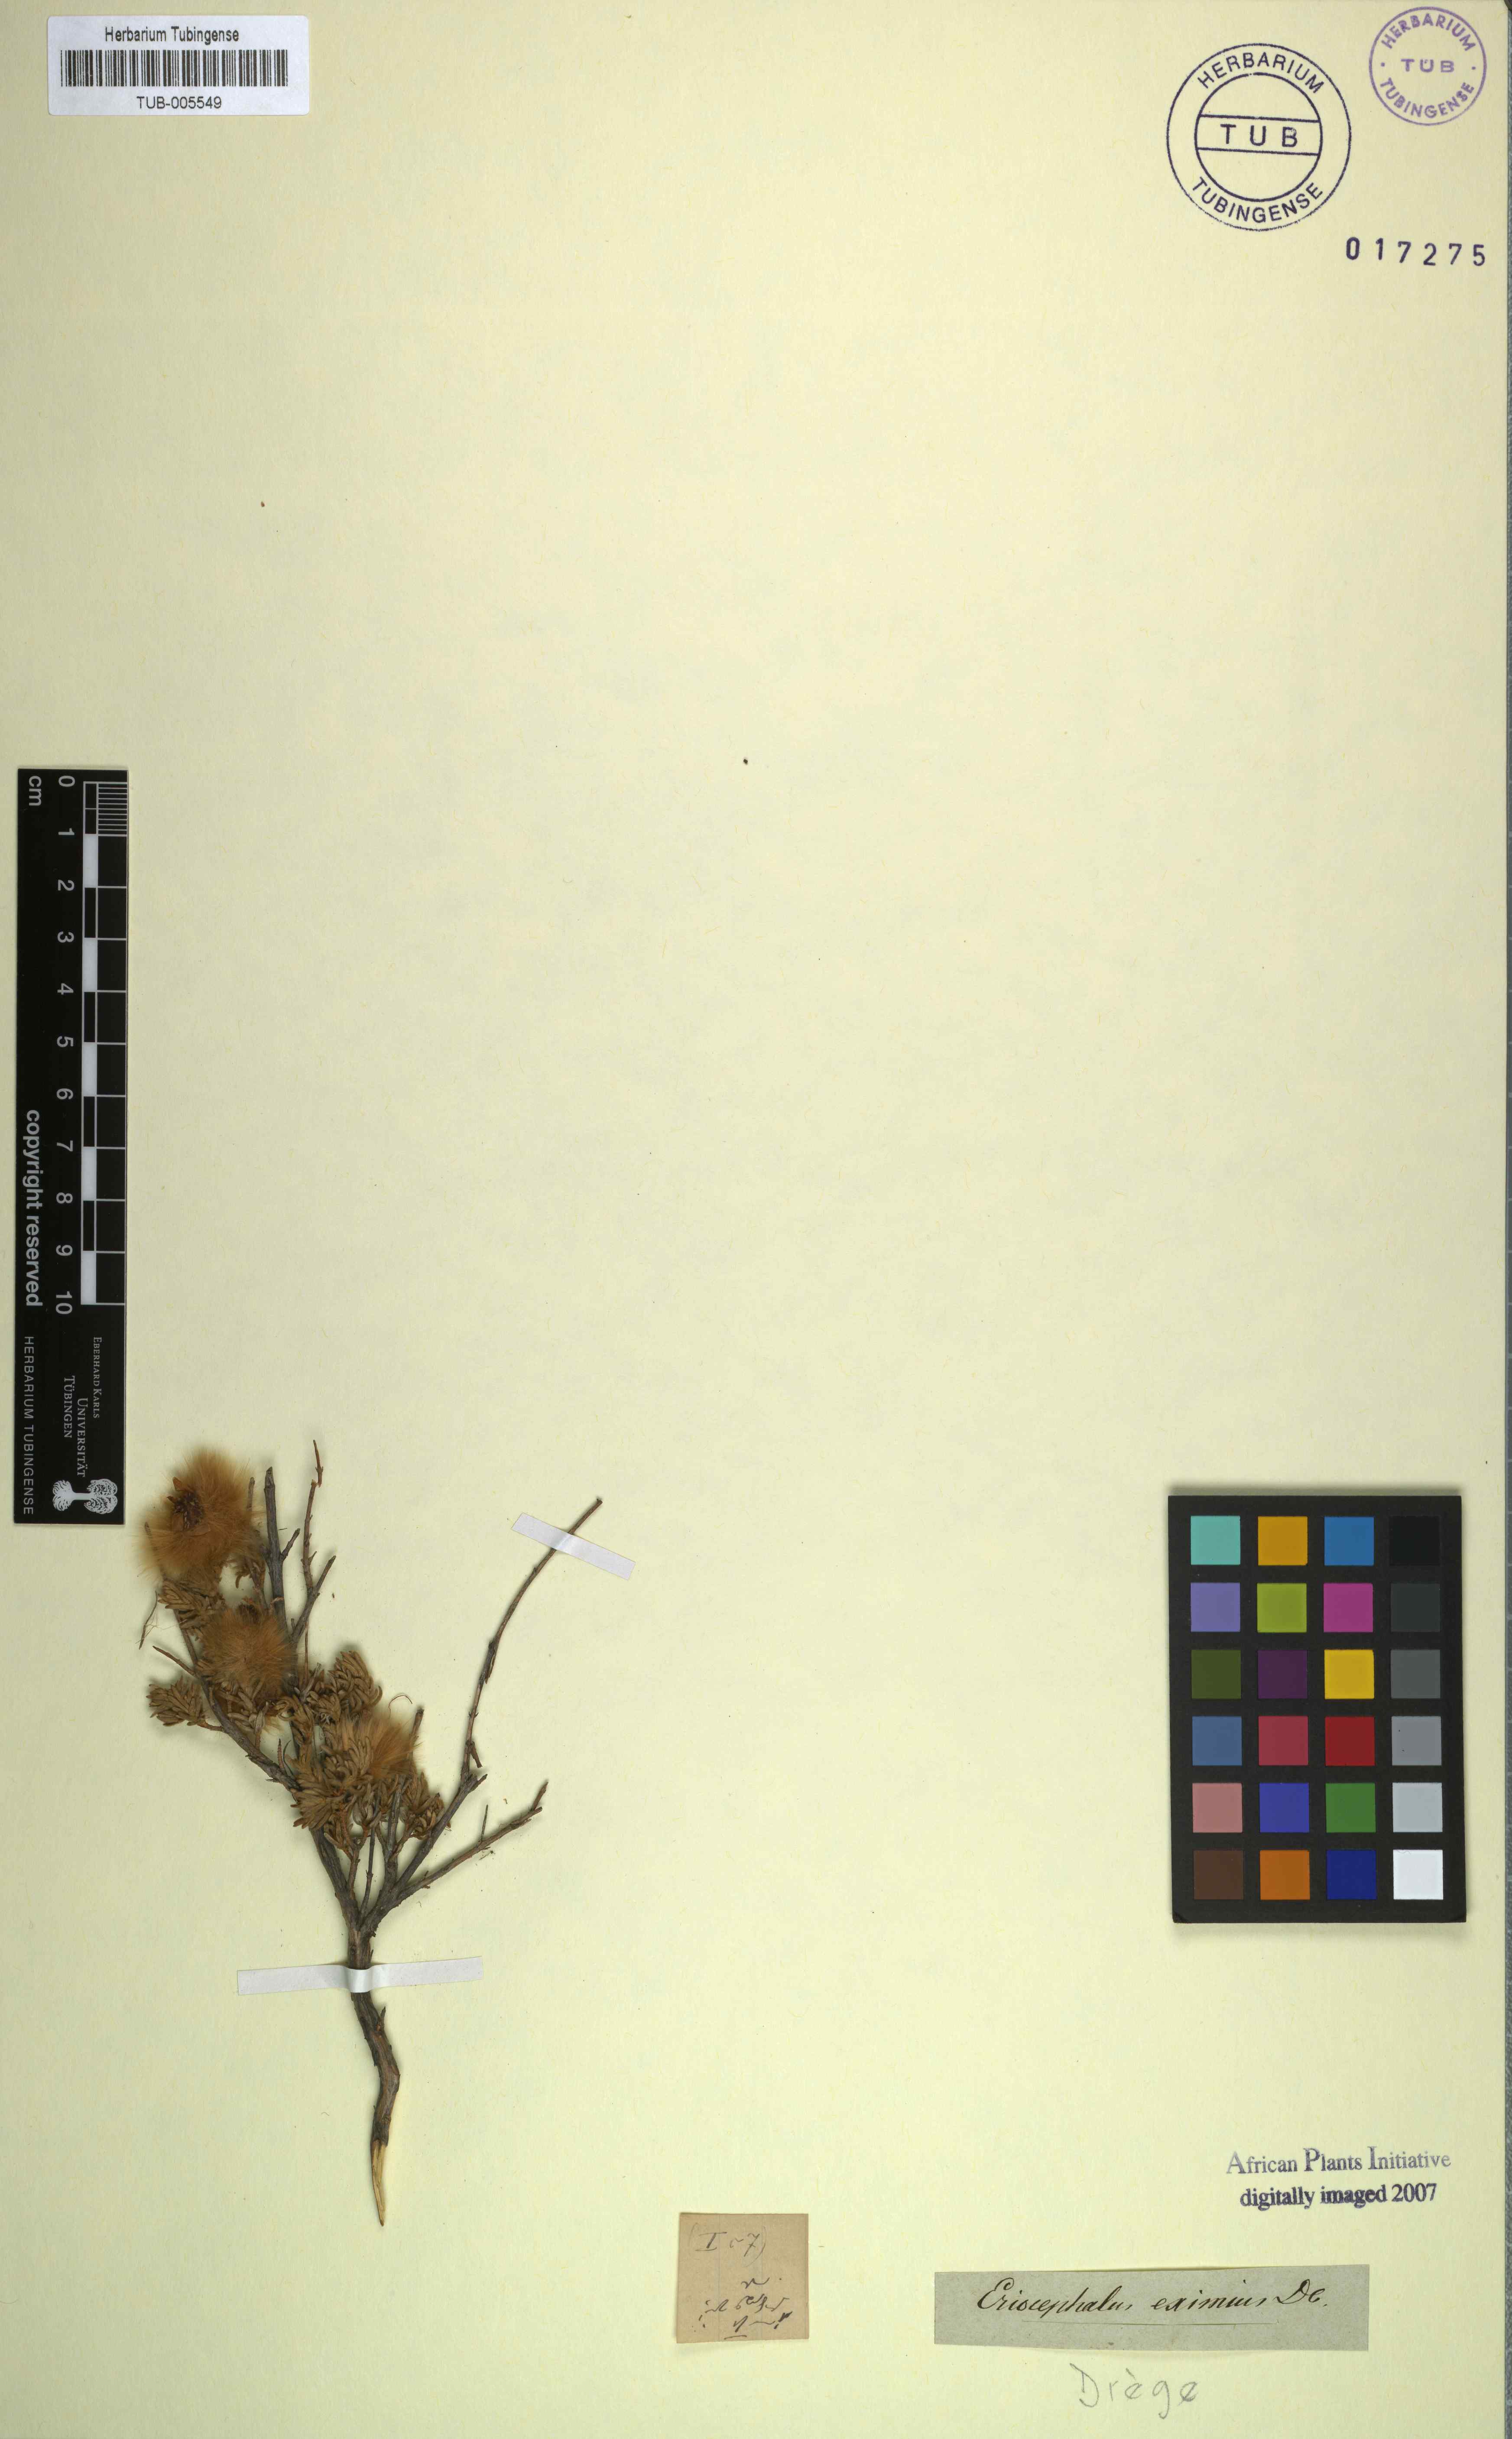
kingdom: Plantae
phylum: Tracheophyta
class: Magnoliopsida
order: Asterales
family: Asteraceae
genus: Eriocephalus
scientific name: Eriocephalus eximius
